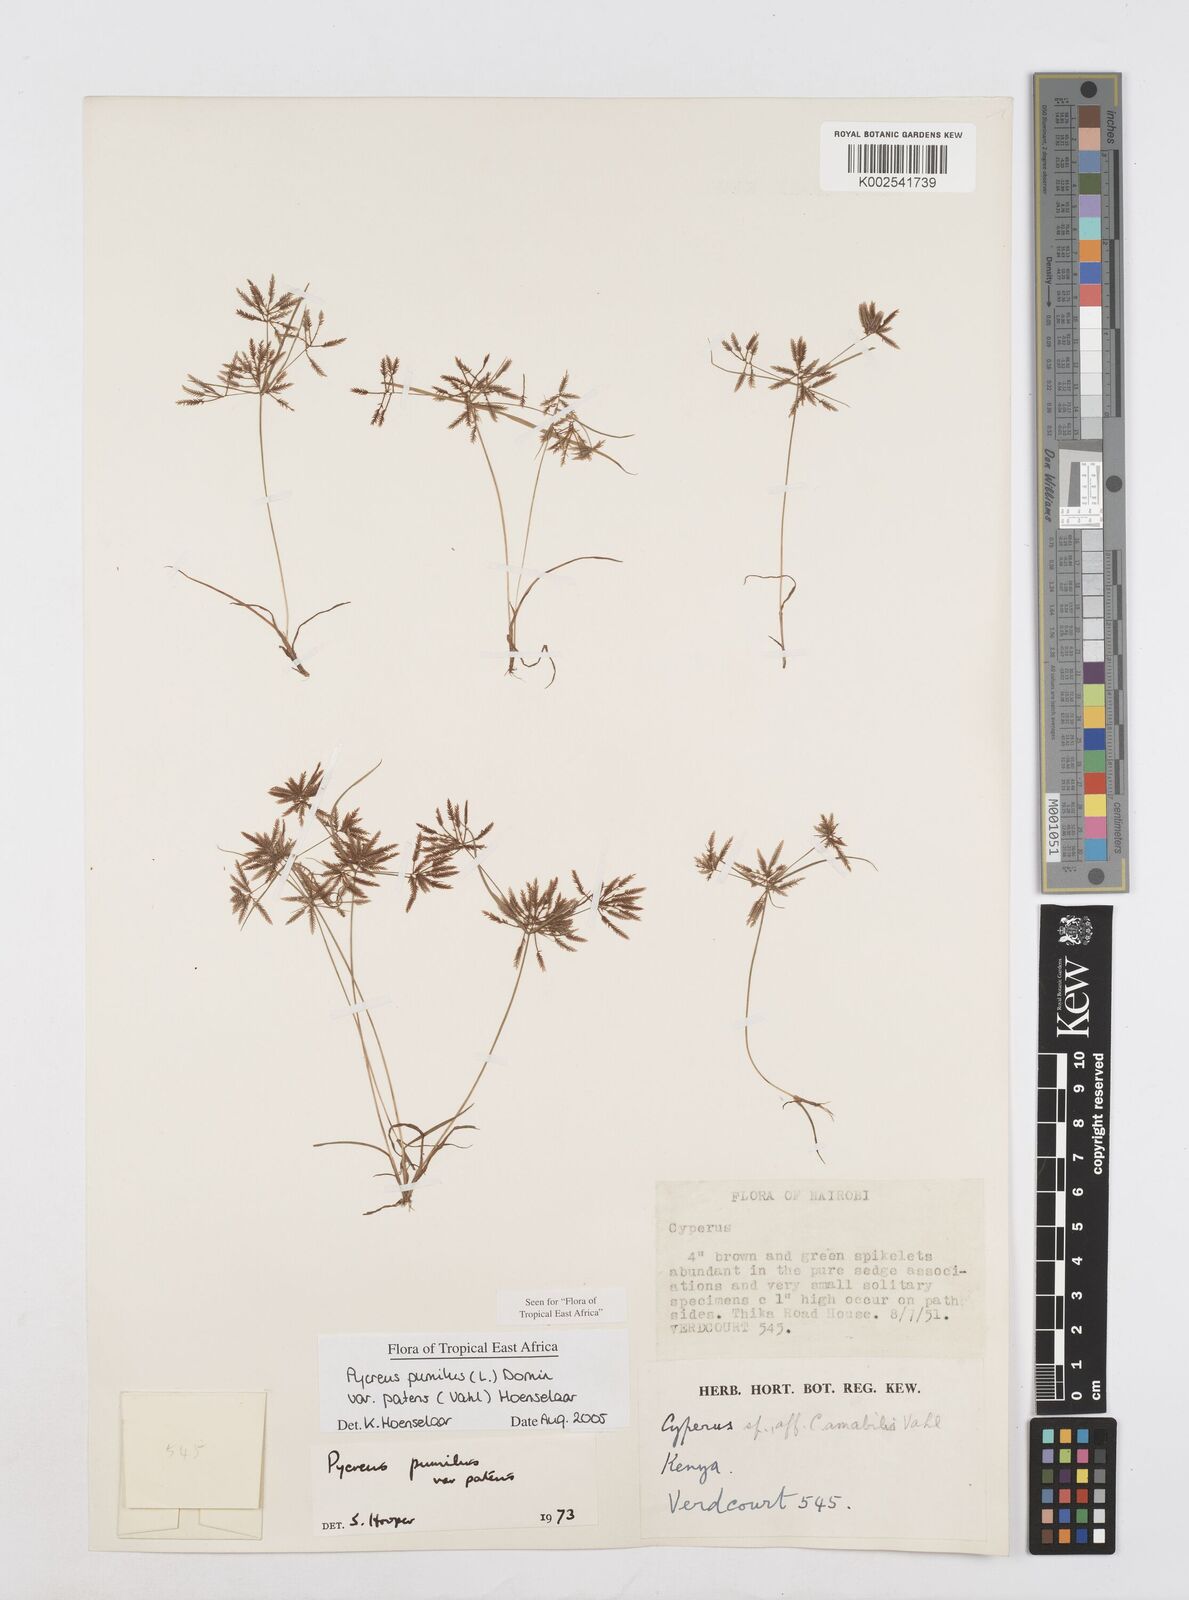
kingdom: Plantae
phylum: Tracheophyta
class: Liliopsida
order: Poales
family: Cyperaceae
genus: Cyperus
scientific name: Cyperus pumilus
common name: Low flatsedge
